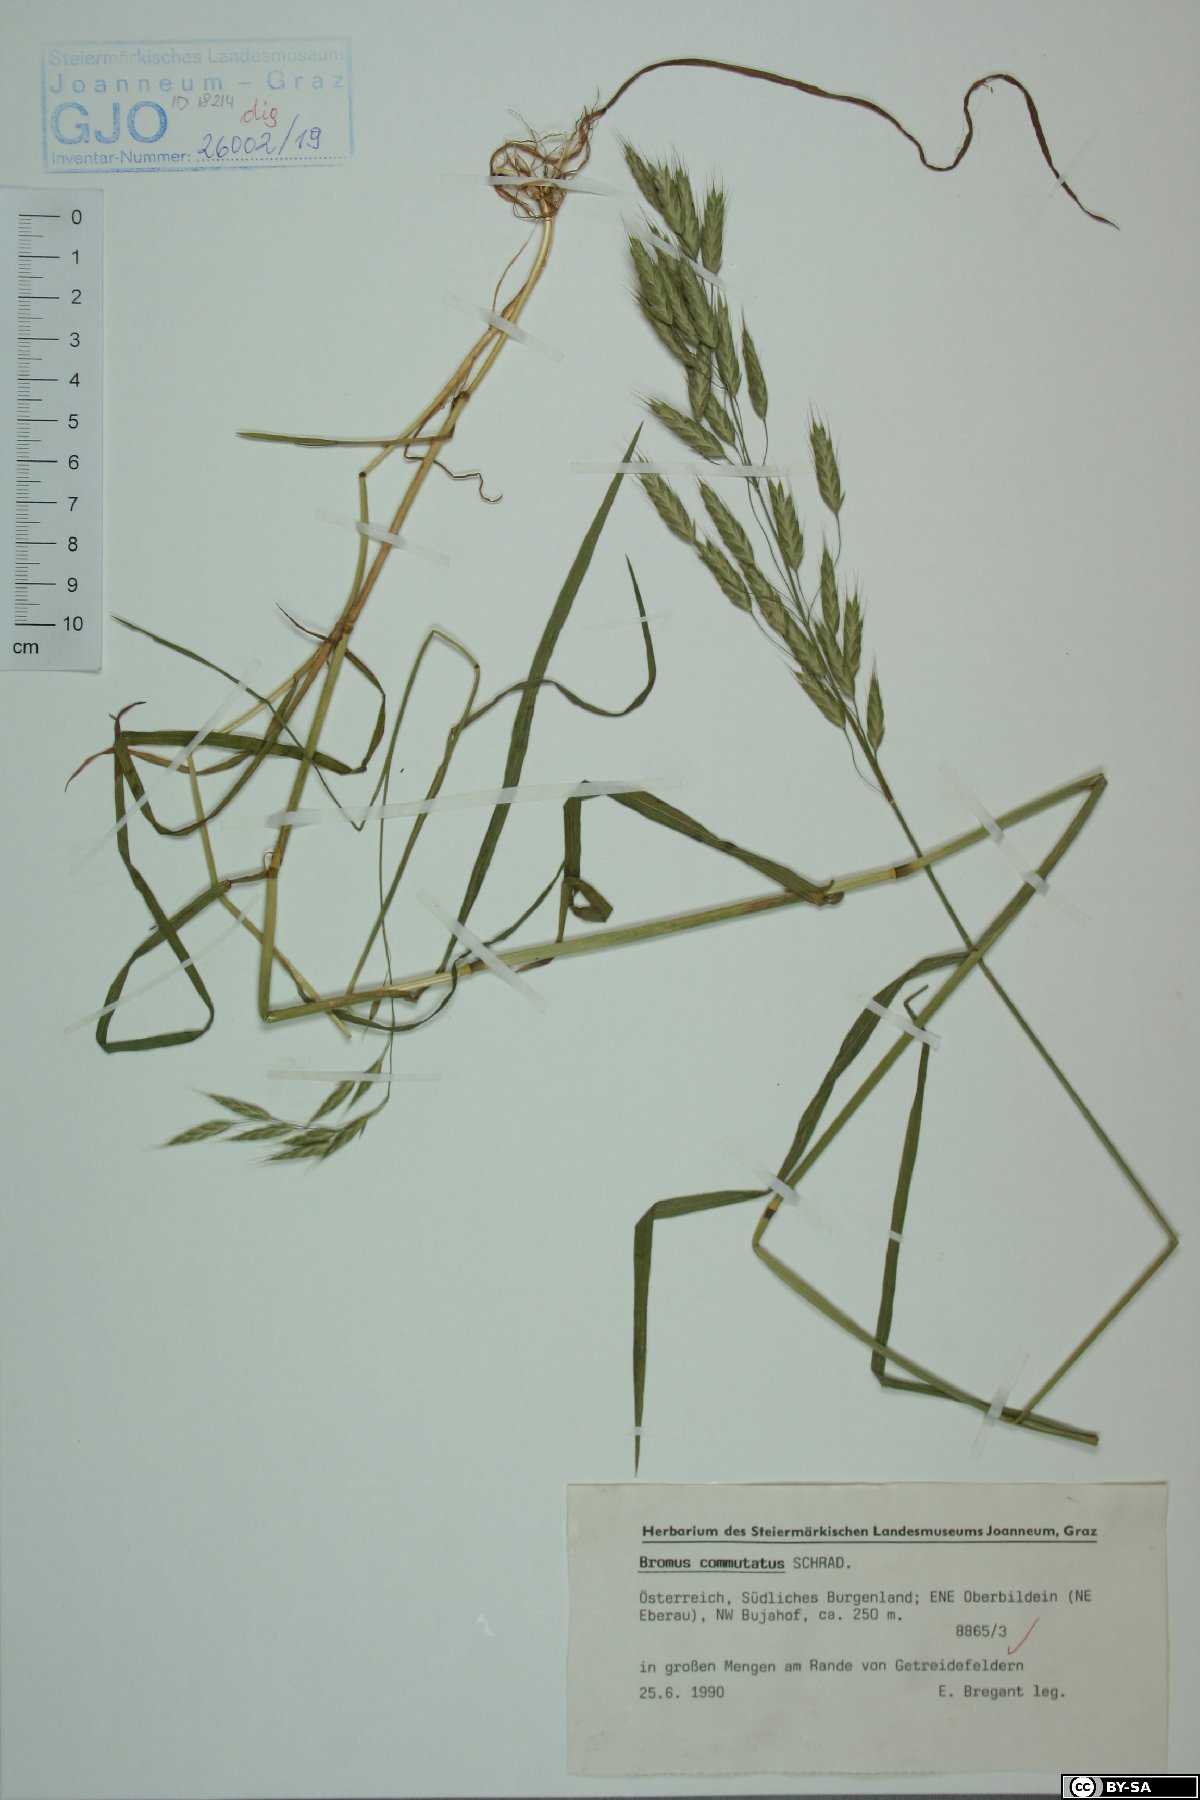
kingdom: Plantae
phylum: Tracheophyta
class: Liliopsida
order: Poales
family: Poaceae
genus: Bromus
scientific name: Bromus commutatus
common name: Meadow brome
